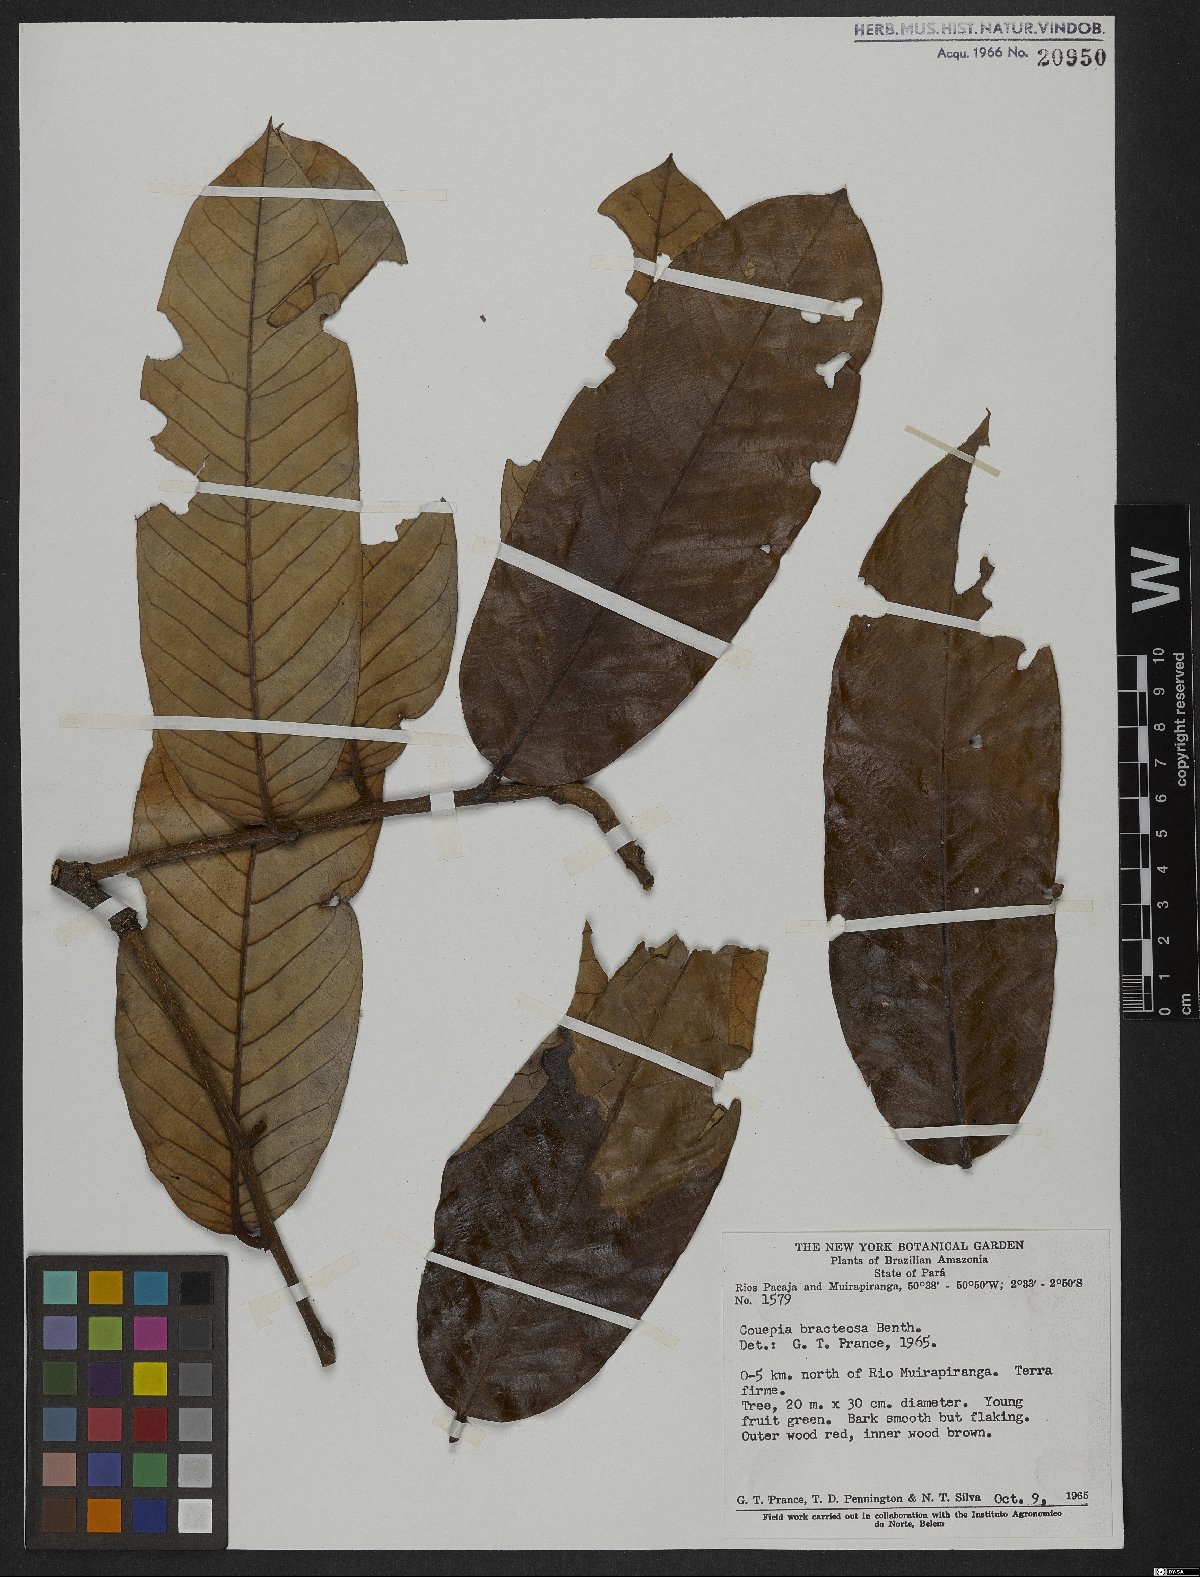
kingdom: Plantae
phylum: Tracheophyta
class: Magnoliopsida
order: Malpighiales
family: Chrysobalanaceae
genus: Couepia
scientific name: Couepia bracteosa
